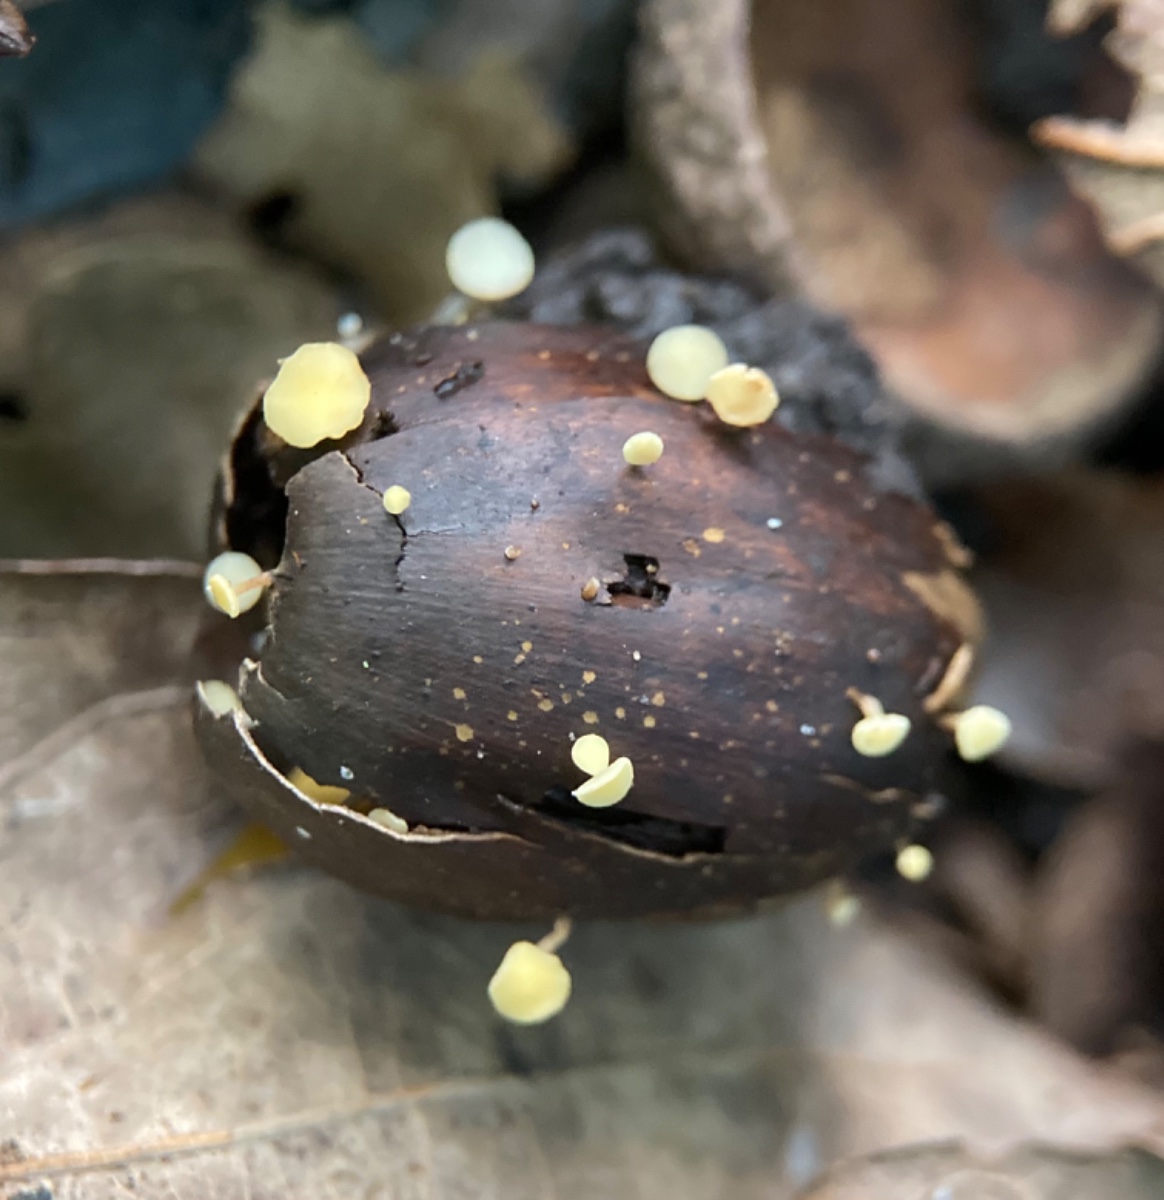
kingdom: Fungi
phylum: Ascomycota
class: Leotiomycetes
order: Helotiales
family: Helotiaceae
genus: Hymenoscyphus
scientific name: Hymenoscyphus fructigenus
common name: frugt-stilkskive
